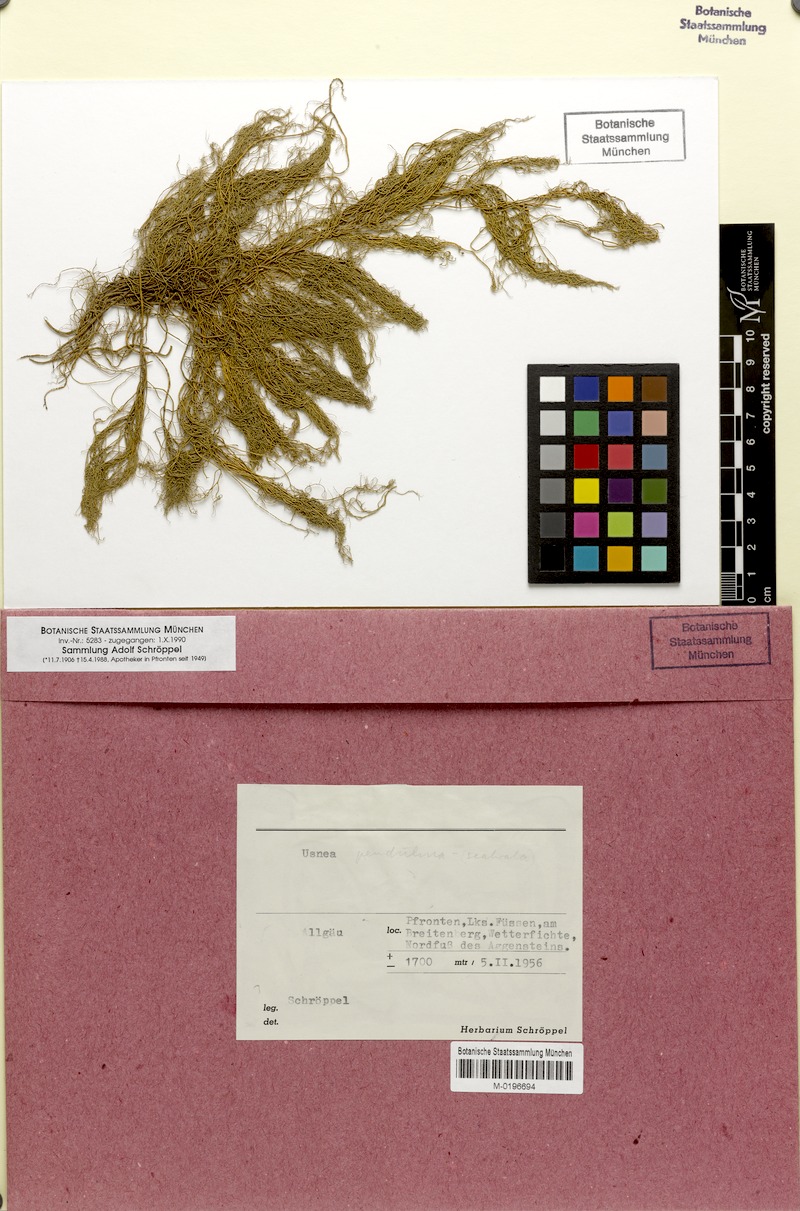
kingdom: Fungi
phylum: Ascomycota
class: Lecanoromycetes
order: Lecanorales
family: Parmeliaceae
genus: Usnea
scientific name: Usnea pendulina
